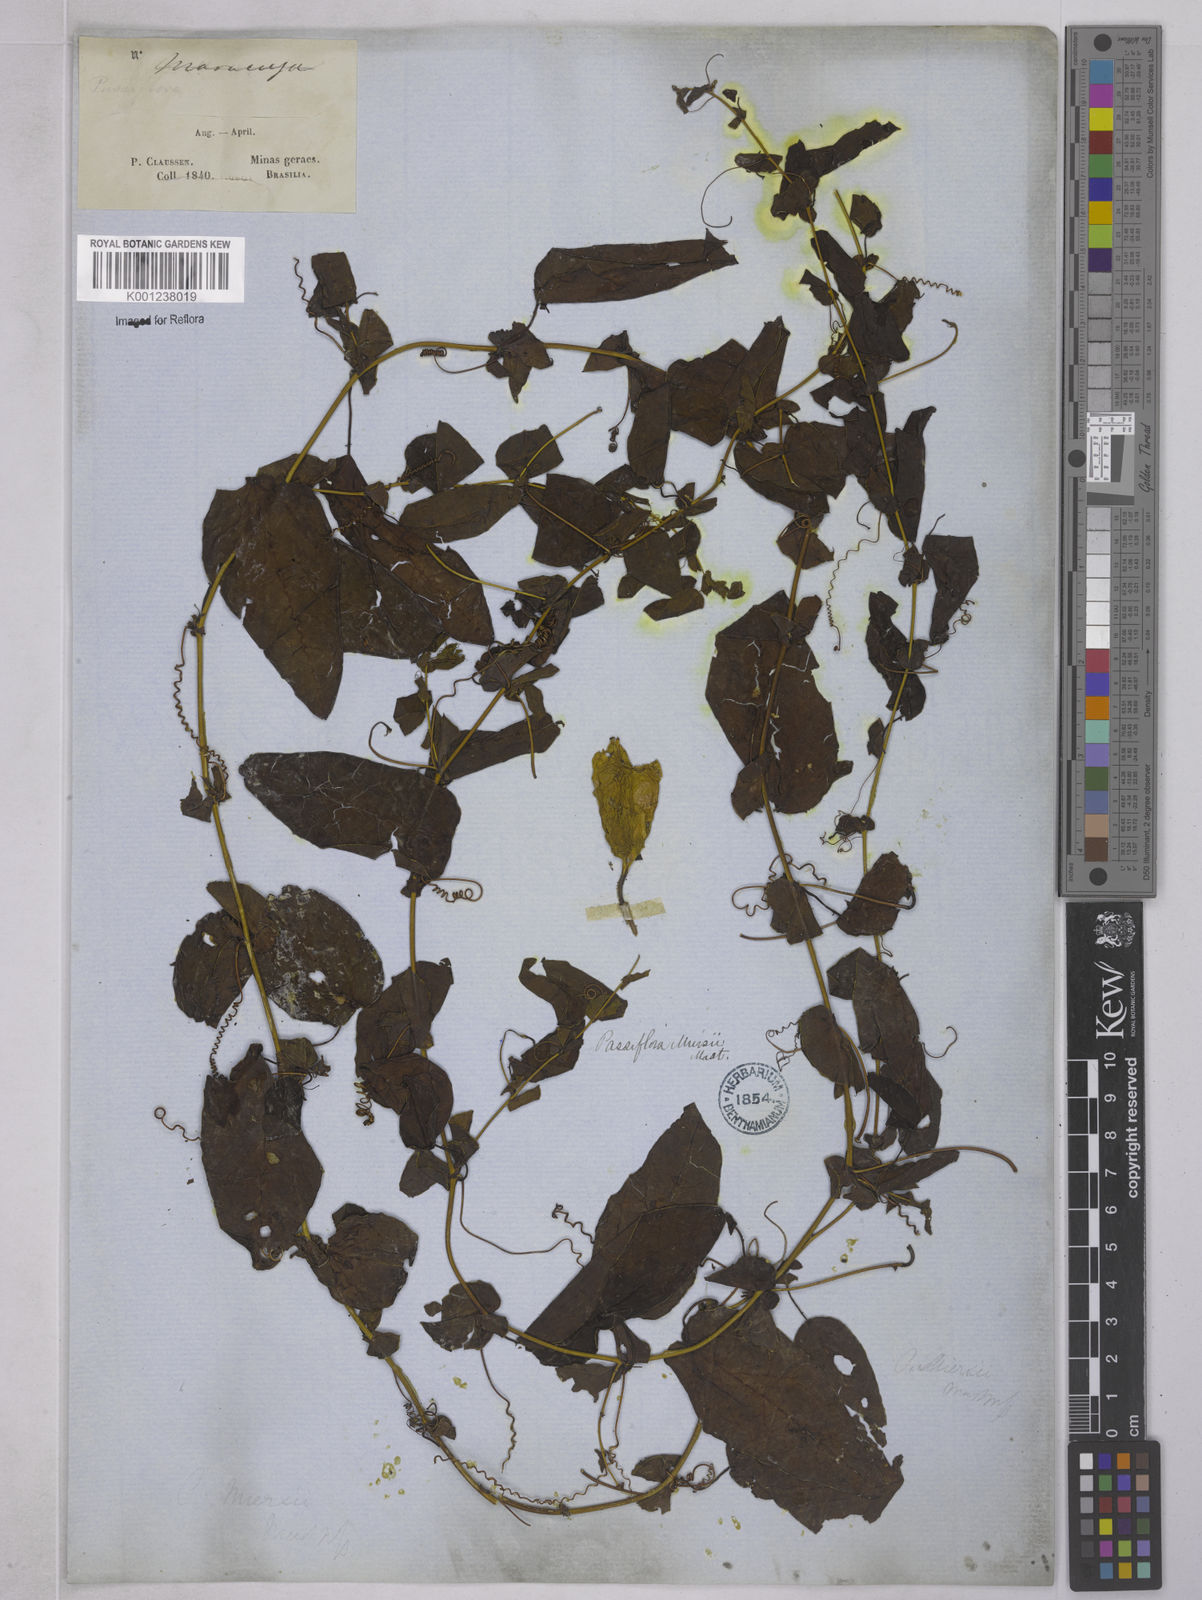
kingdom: Plantae
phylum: Tracheophyta
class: Magnoliopsida
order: Malpighiales
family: Passifloraceae
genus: Passiflora
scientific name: Passiflora miersii
